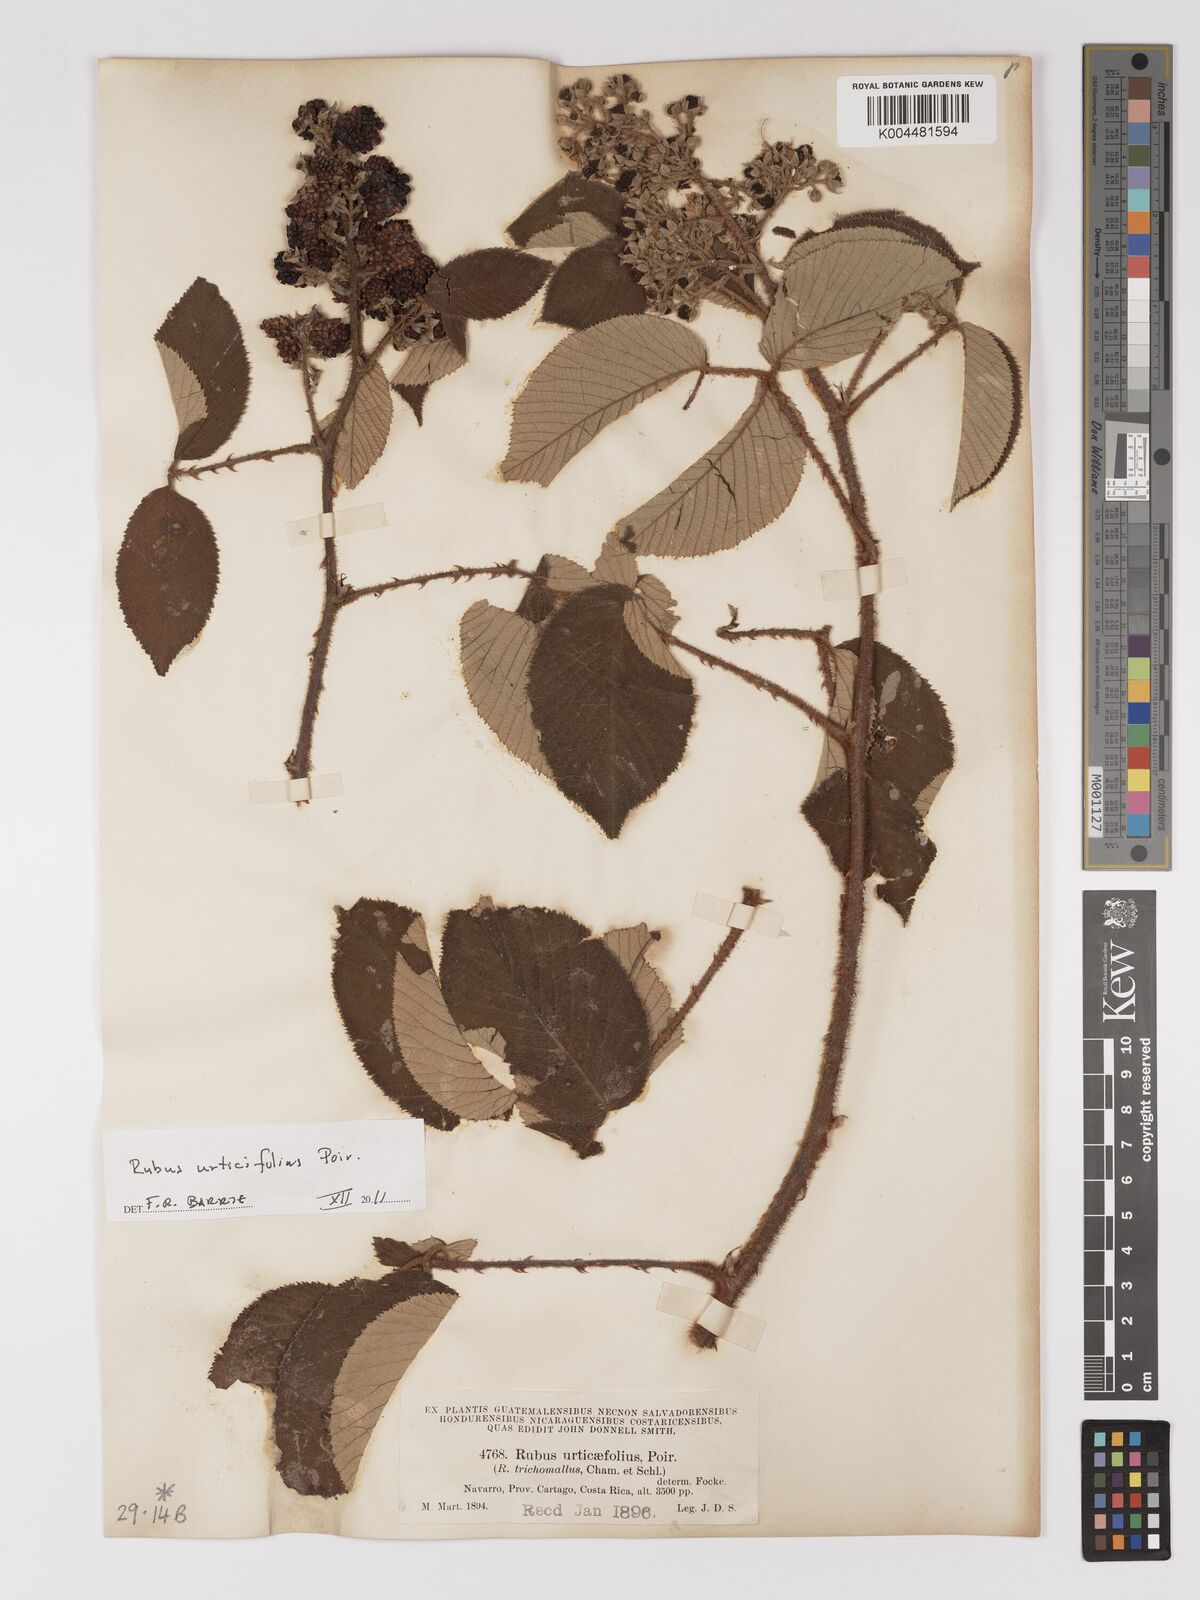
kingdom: Plantae
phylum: Tracheophyta
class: Magnoliopsida
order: Rosales
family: Rosaceae
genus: Rubus
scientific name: Rubus urticifolius
